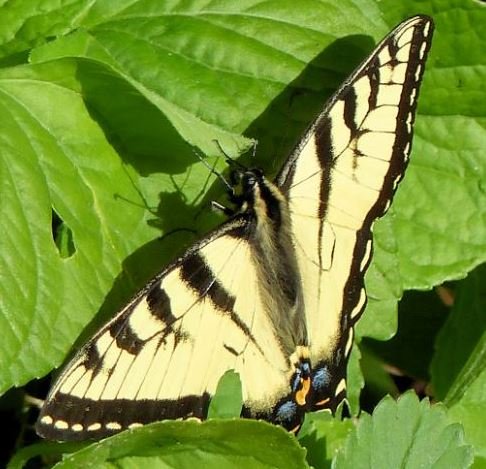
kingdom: Animalia
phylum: Arthropoda
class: Insecta
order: Lepidoptera
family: Papilionidae
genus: Pterourus
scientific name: Pterourus canadensis
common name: Canadian Tiger Swallowtail
